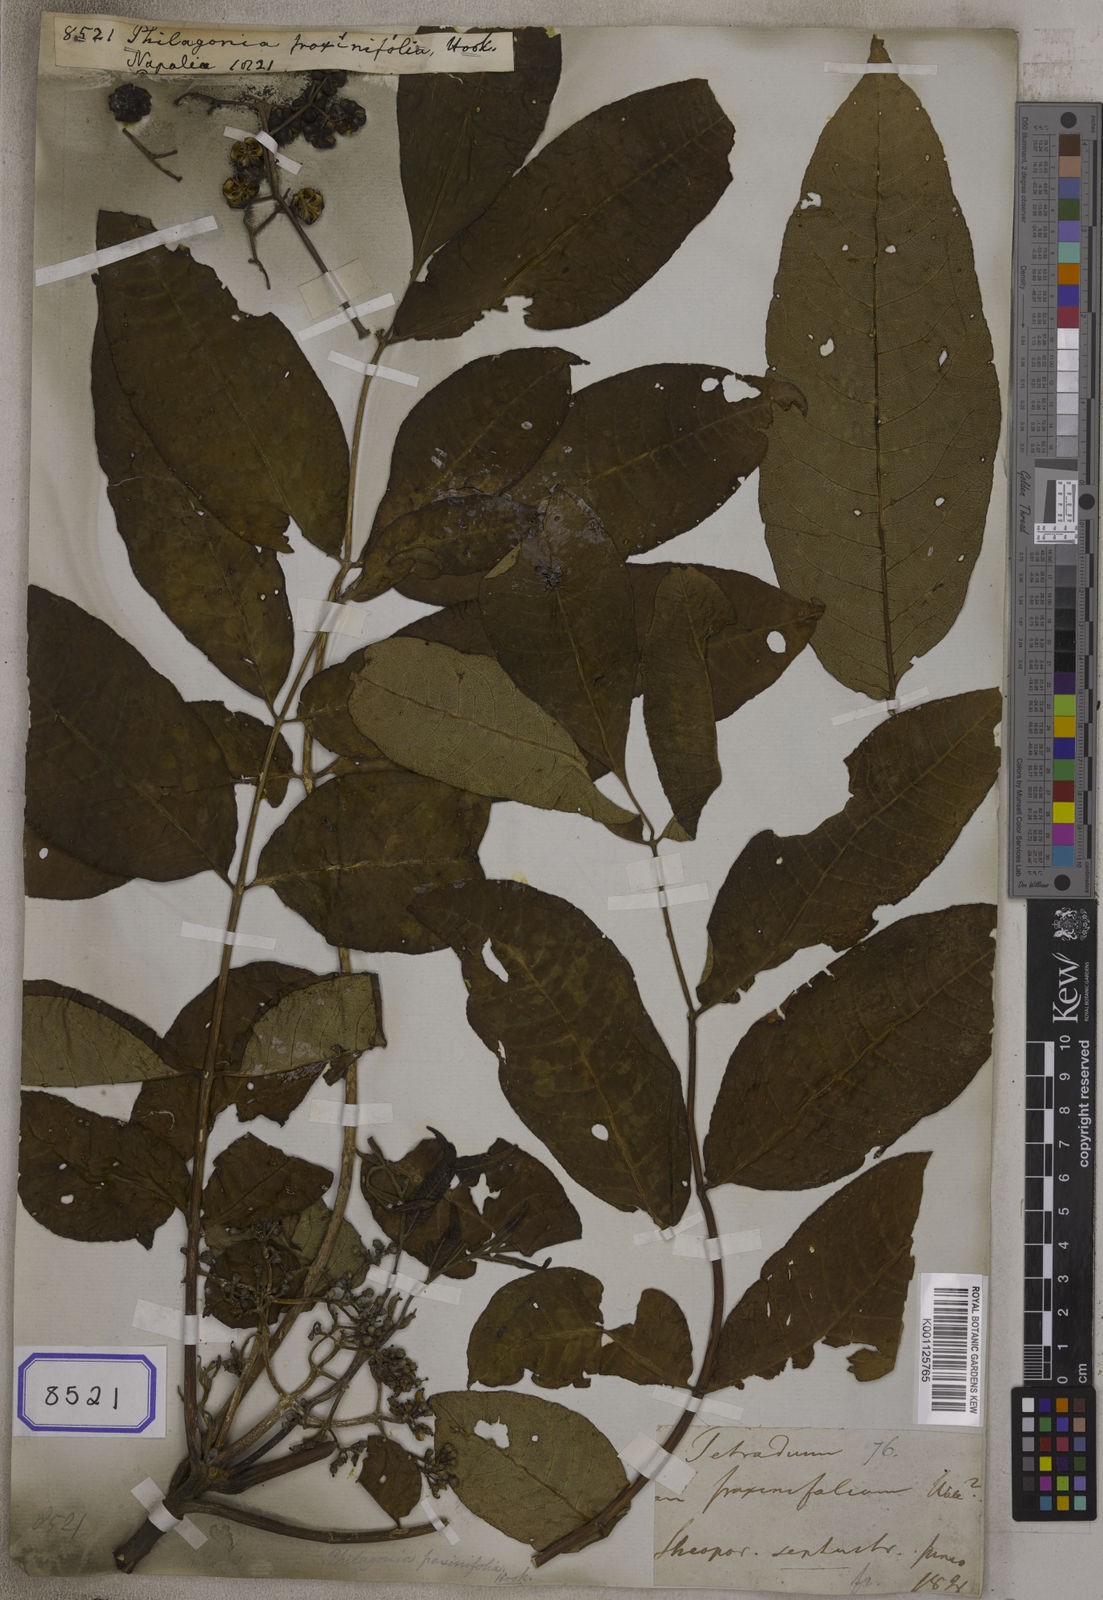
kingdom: Plantae
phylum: Tracheophyta
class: Magnoliopsida
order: Sapindales
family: Rutaceae
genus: Tetradium
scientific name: Tetradium fraxinifolium
